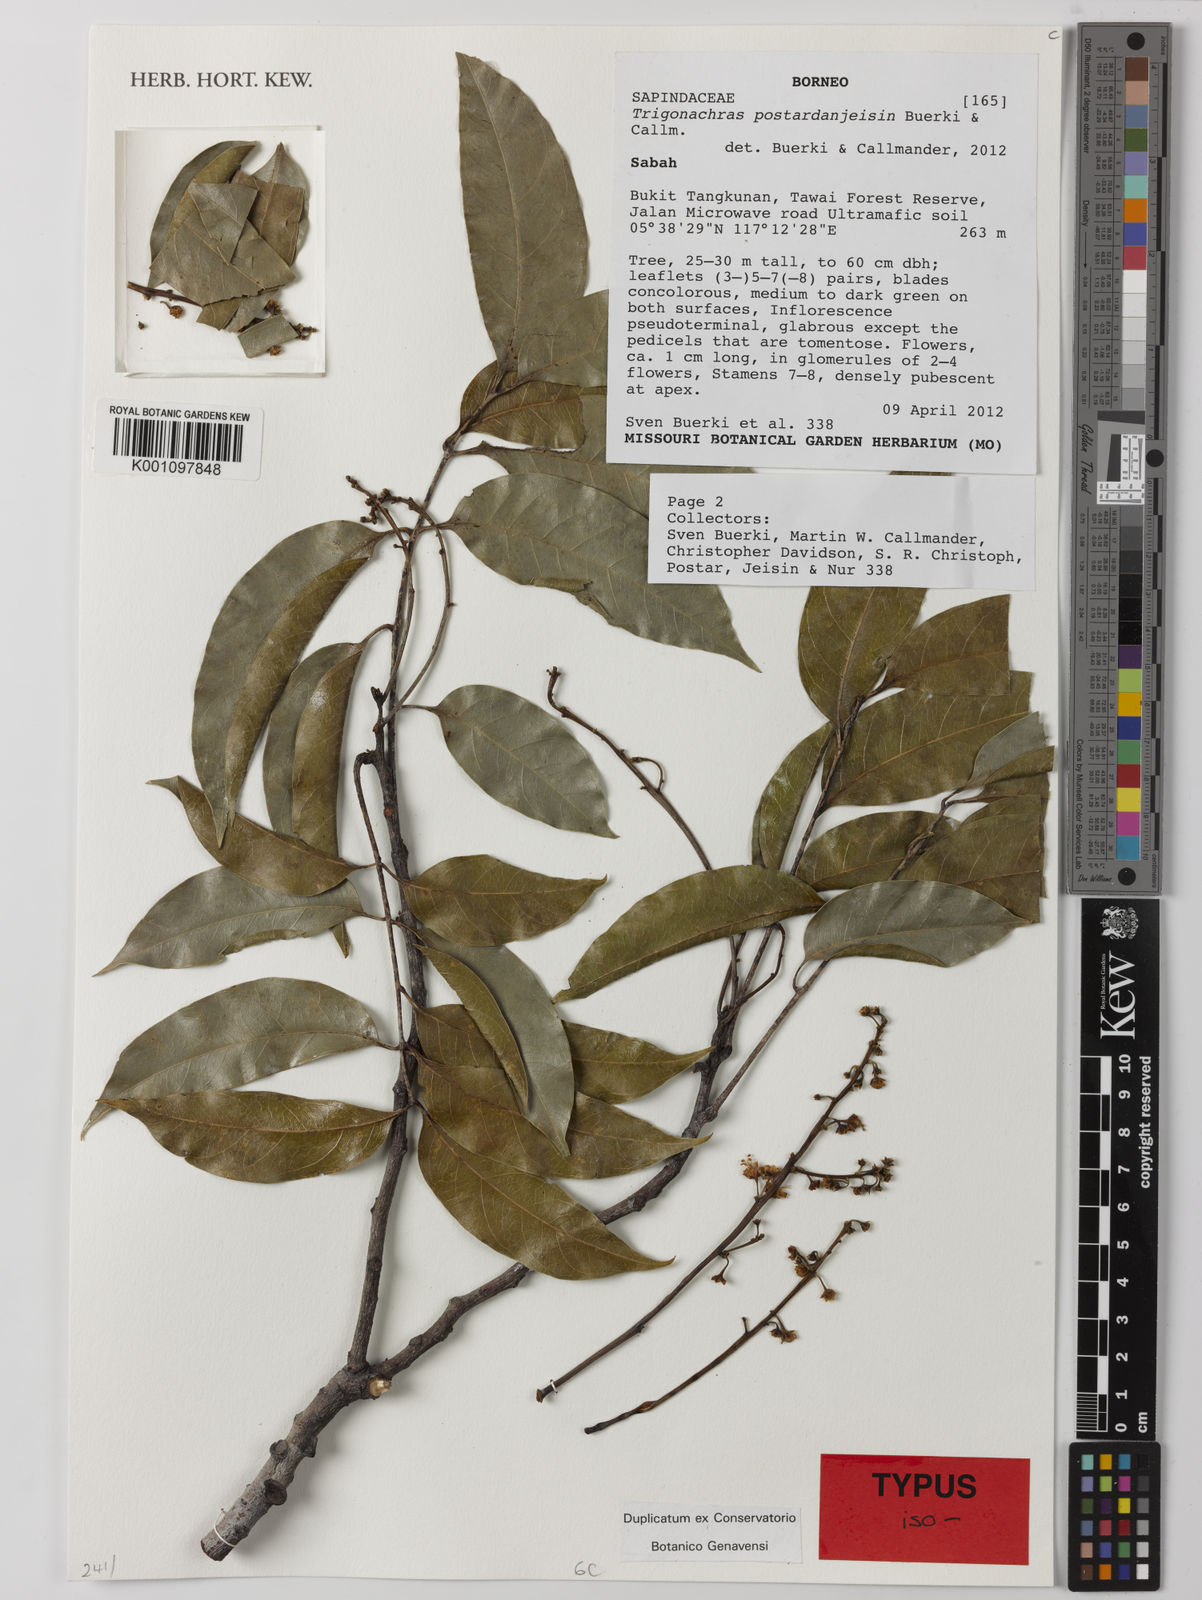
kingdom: Plantae
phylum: Tracheophyta
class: Magnoliopsida
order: Sapindales
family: Sapindaceae
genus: Trigonachras
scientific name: Trigonachras postardanjeisin
